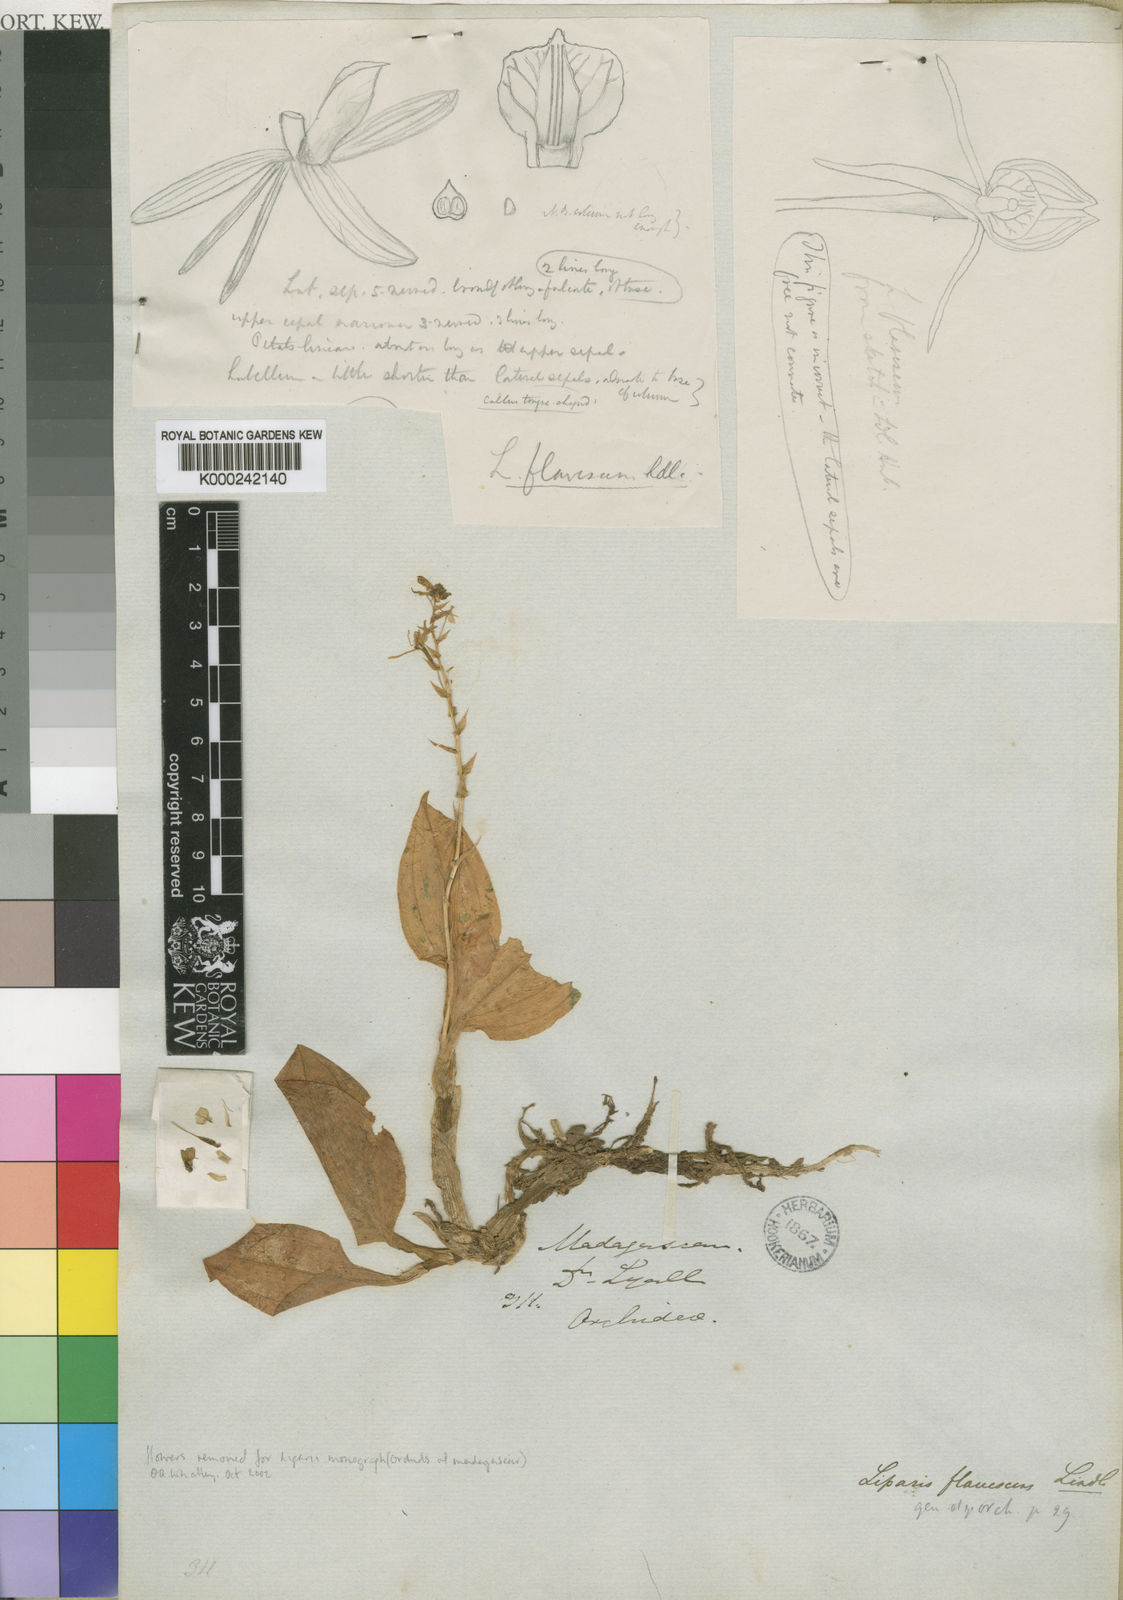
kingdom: Plantae
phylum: Tracheophyta
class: Liliopsida
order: Asparagales
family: Orchidaceae
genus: Liparis
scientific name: Liparis flavescens
